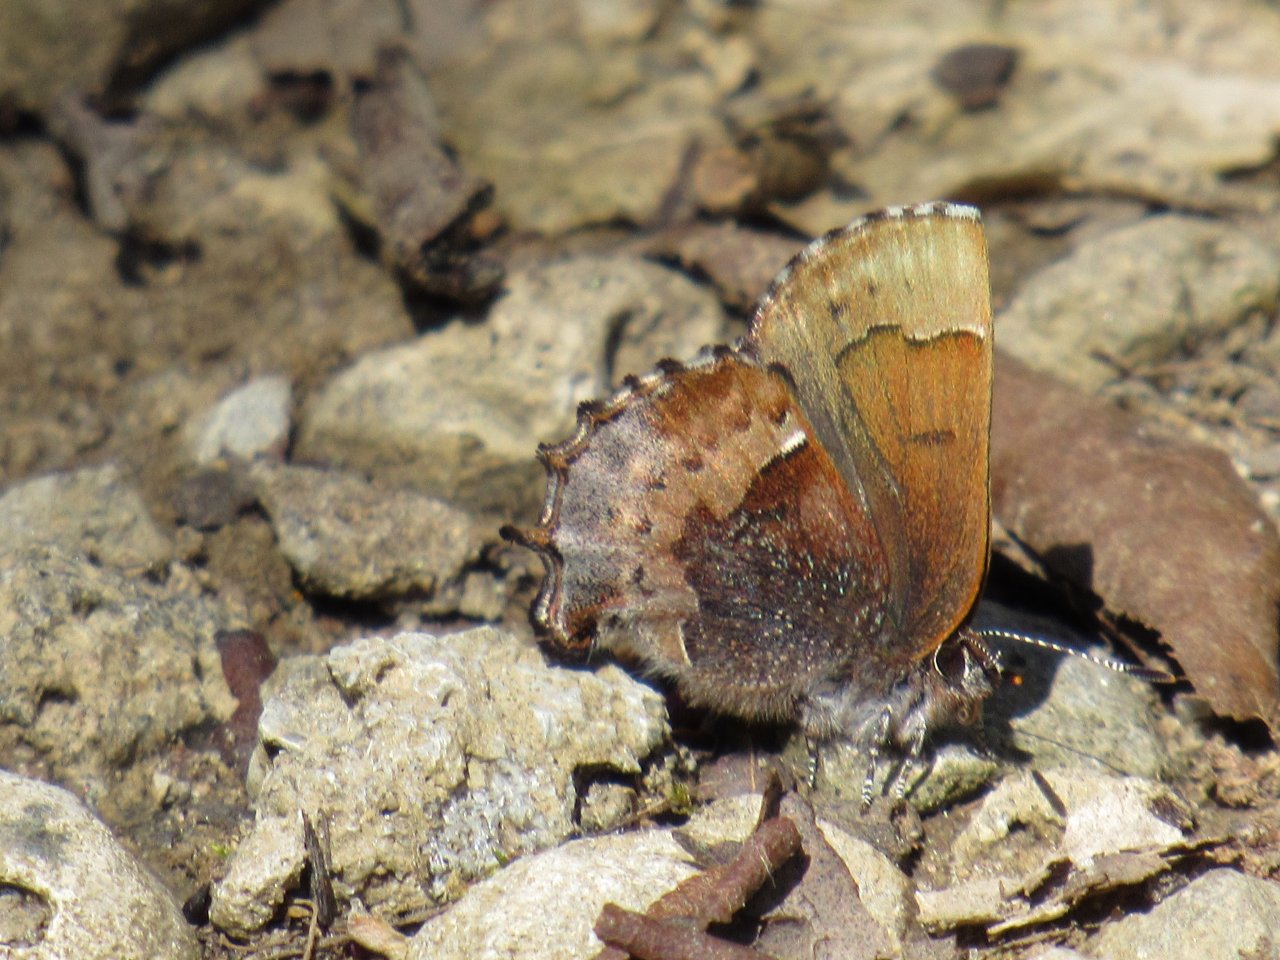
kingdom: Animalia
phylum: Arthropoda
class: Insecta
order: Lepidoptera
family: Lycaenidae
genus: Incisalia
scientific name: Incisalia henrici
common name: Henry's Elfin
